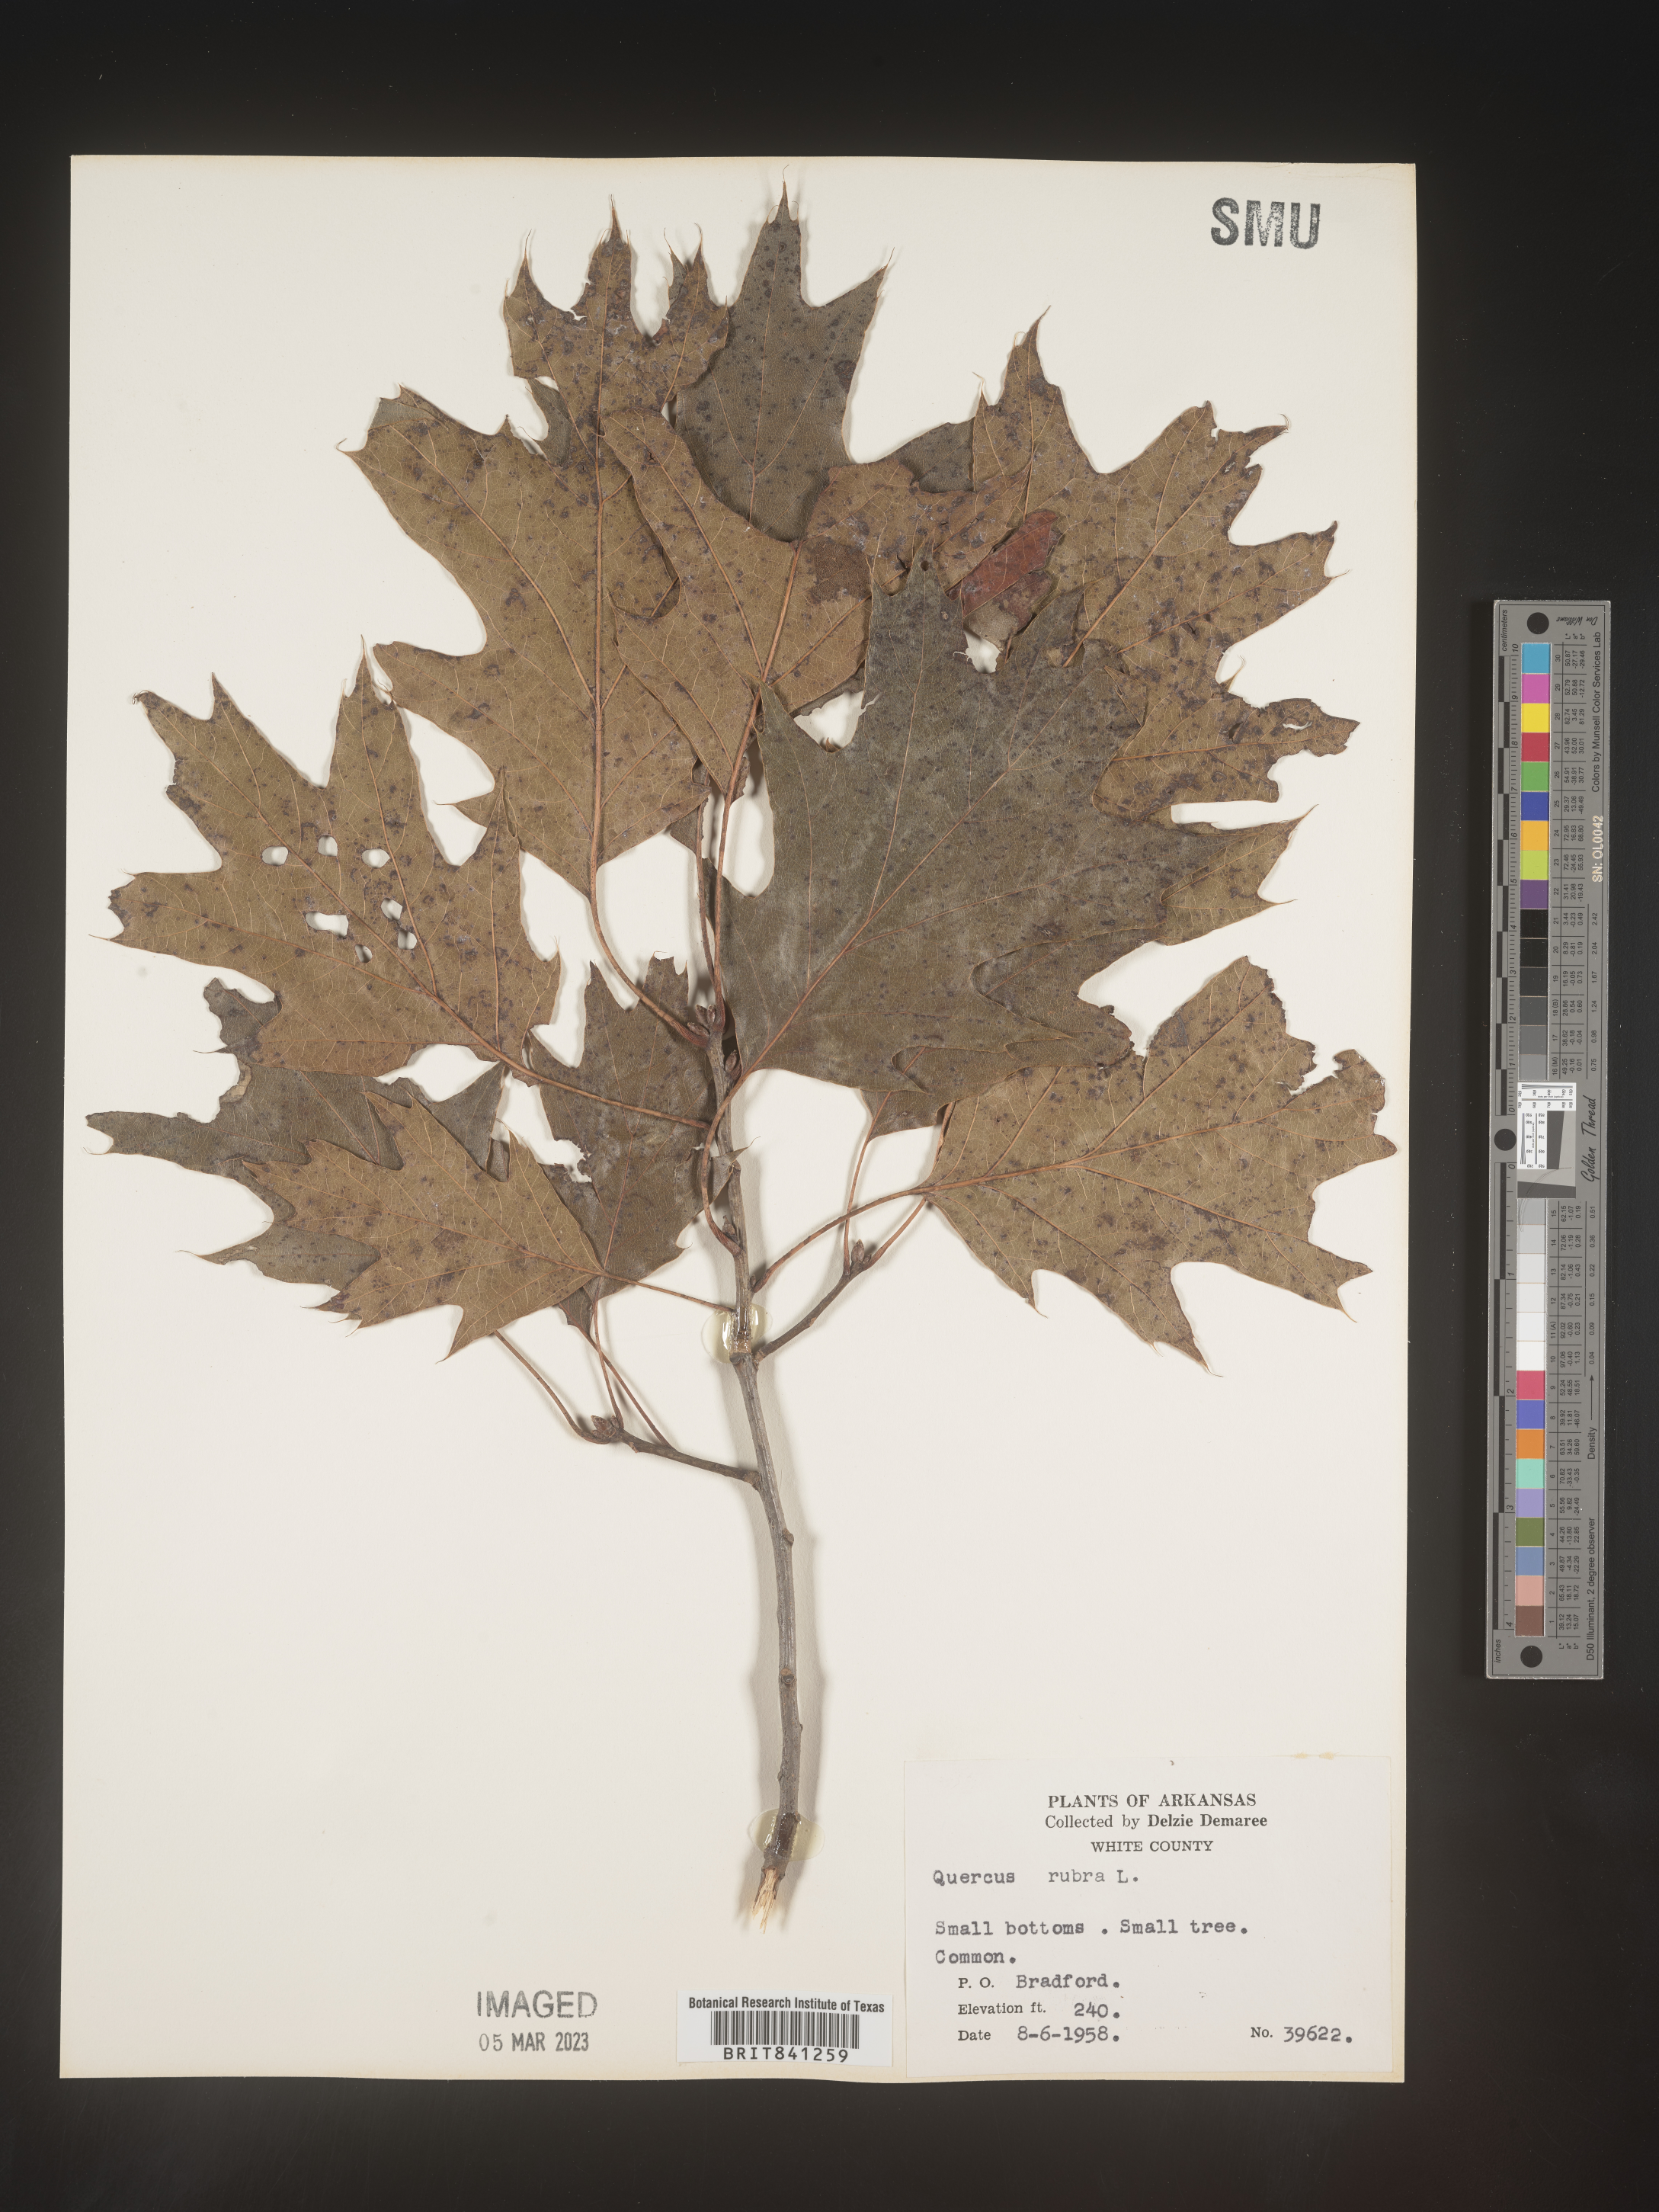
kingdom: Plantae
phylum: Tracheophyta
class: Magnoliopsida
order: Fagales
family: Fagaceae
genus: Quercus
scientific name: Quercus rubra
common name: Red oak
